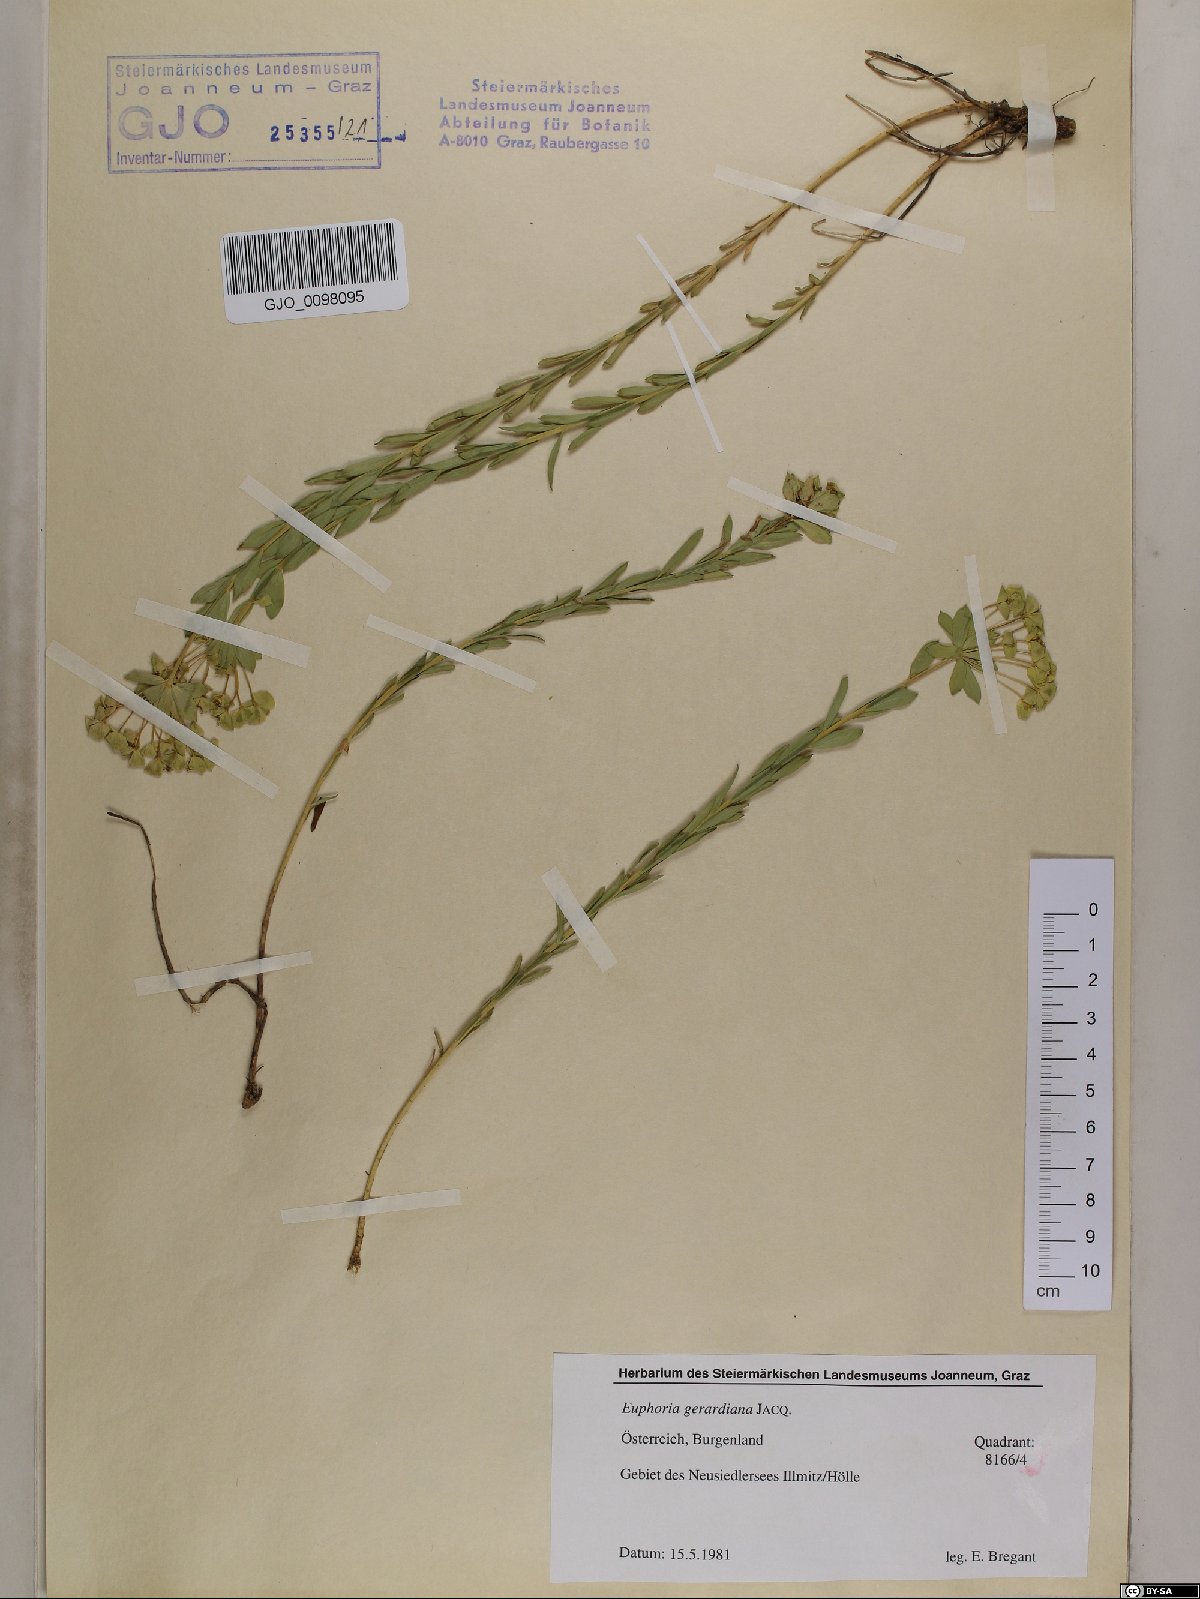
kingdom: Plantae
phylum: Tracheophyta
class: Magnoliopsida
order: Malpighiales
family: Euphorbiaceae
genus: Euphorbia
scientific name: Euphorbia seguieriana
